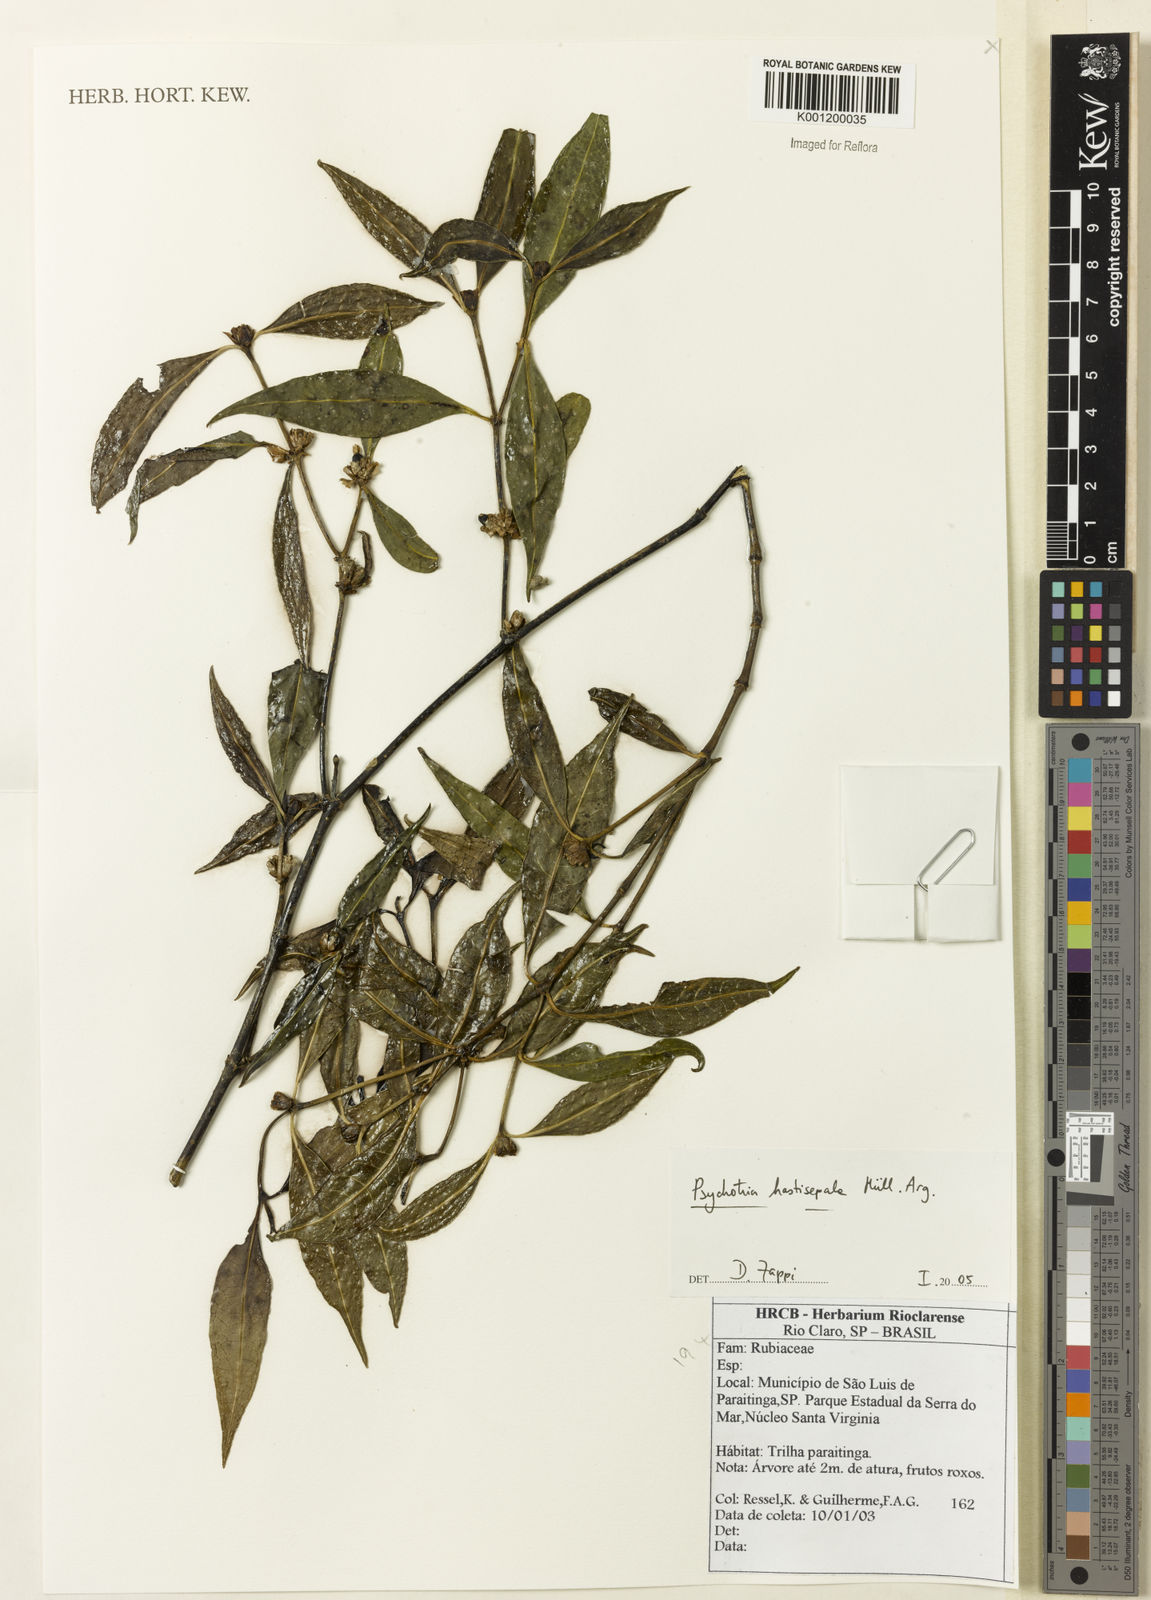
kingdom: Plantae
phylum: Tracheophyta
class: Magnoliopsida
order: Gentianales
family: Rubiaceae
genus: Psychotria
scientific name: Psychotria
